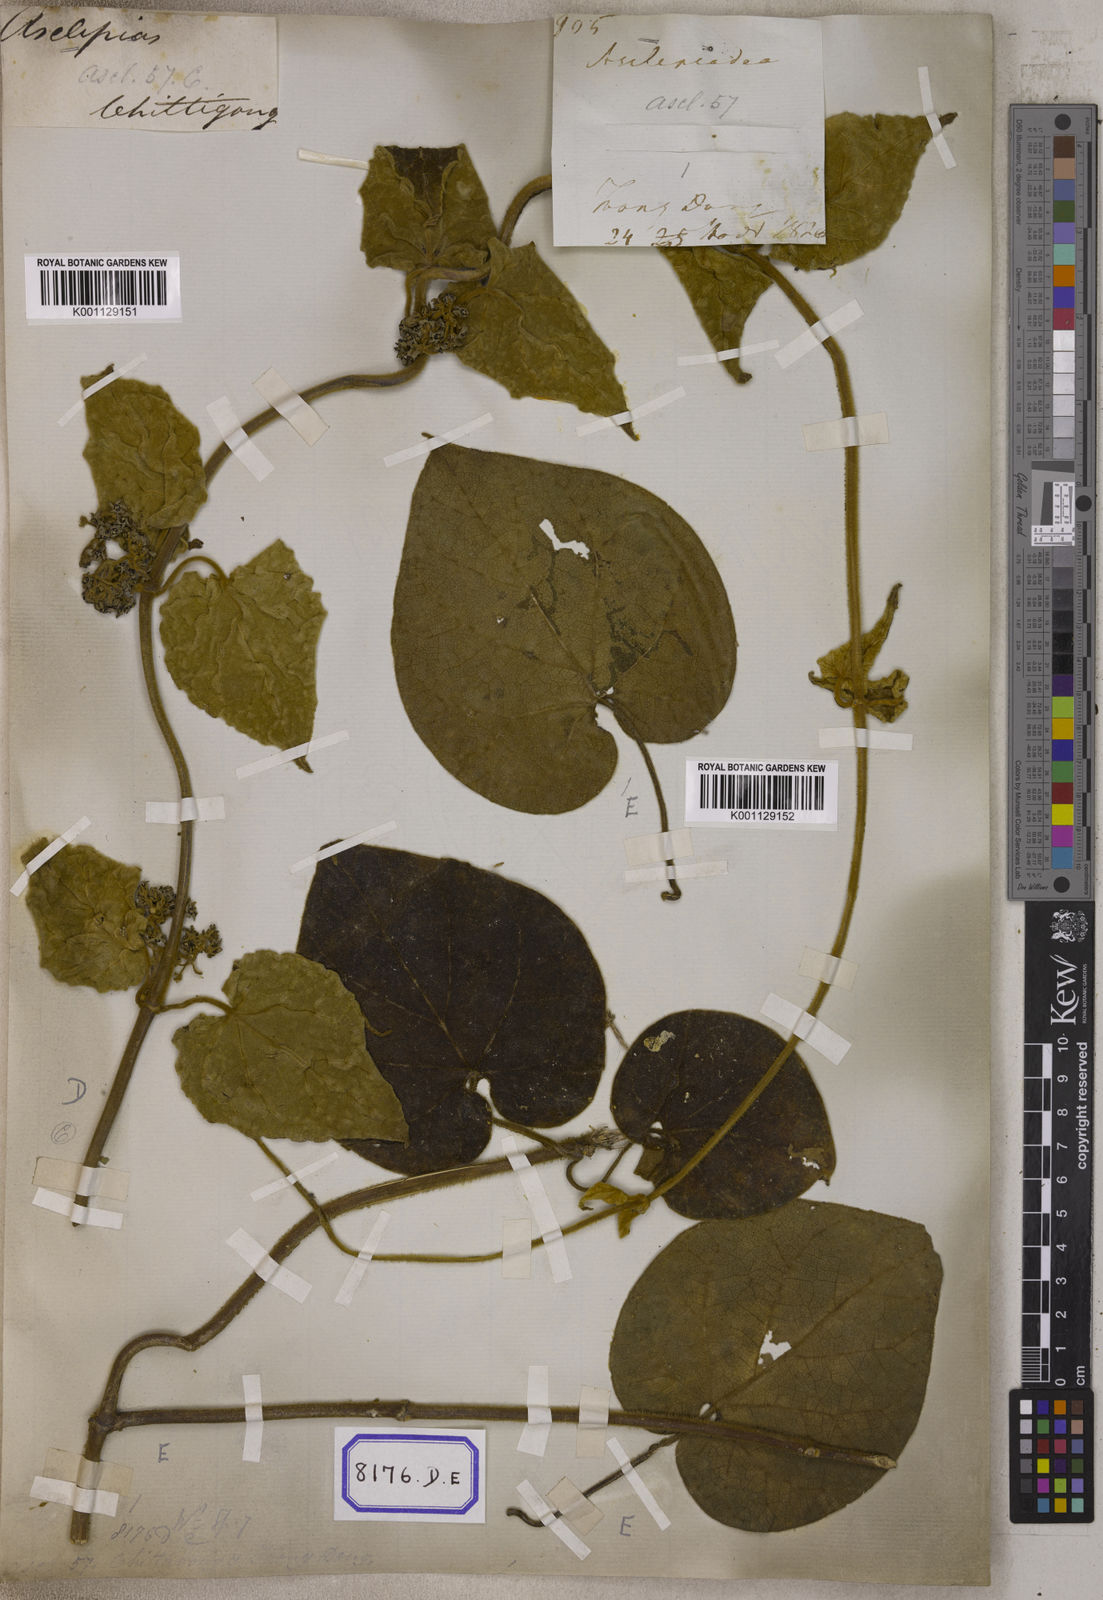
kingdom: Plantae
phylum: Tracheophyta
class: Magnoliopsida
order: Gentianales
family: Apocynaceae
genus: Marsdenia
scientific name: Marsdenia
